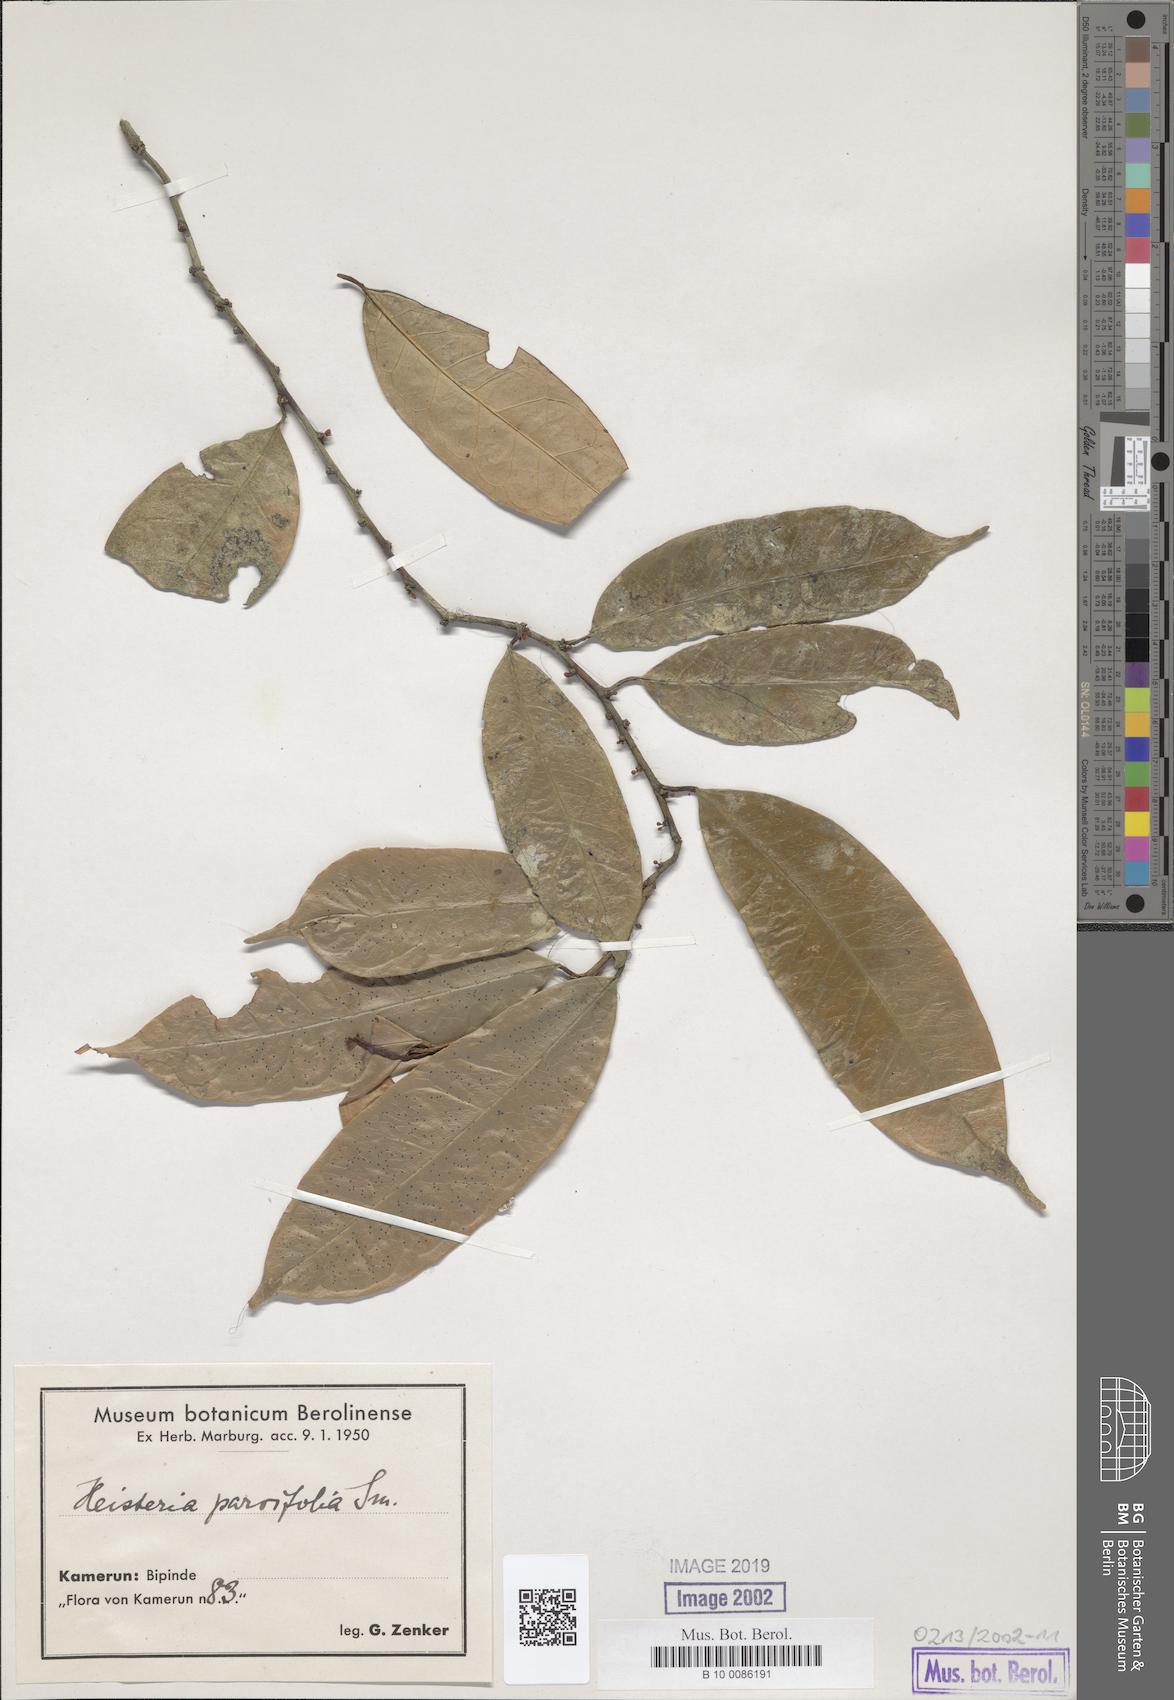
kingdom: Plantae
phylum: Tracheophyta
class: Magnoliopsida
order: Santalales
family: Erythropalaceae
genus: Heisteria
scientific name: Heisteria parvifolia
